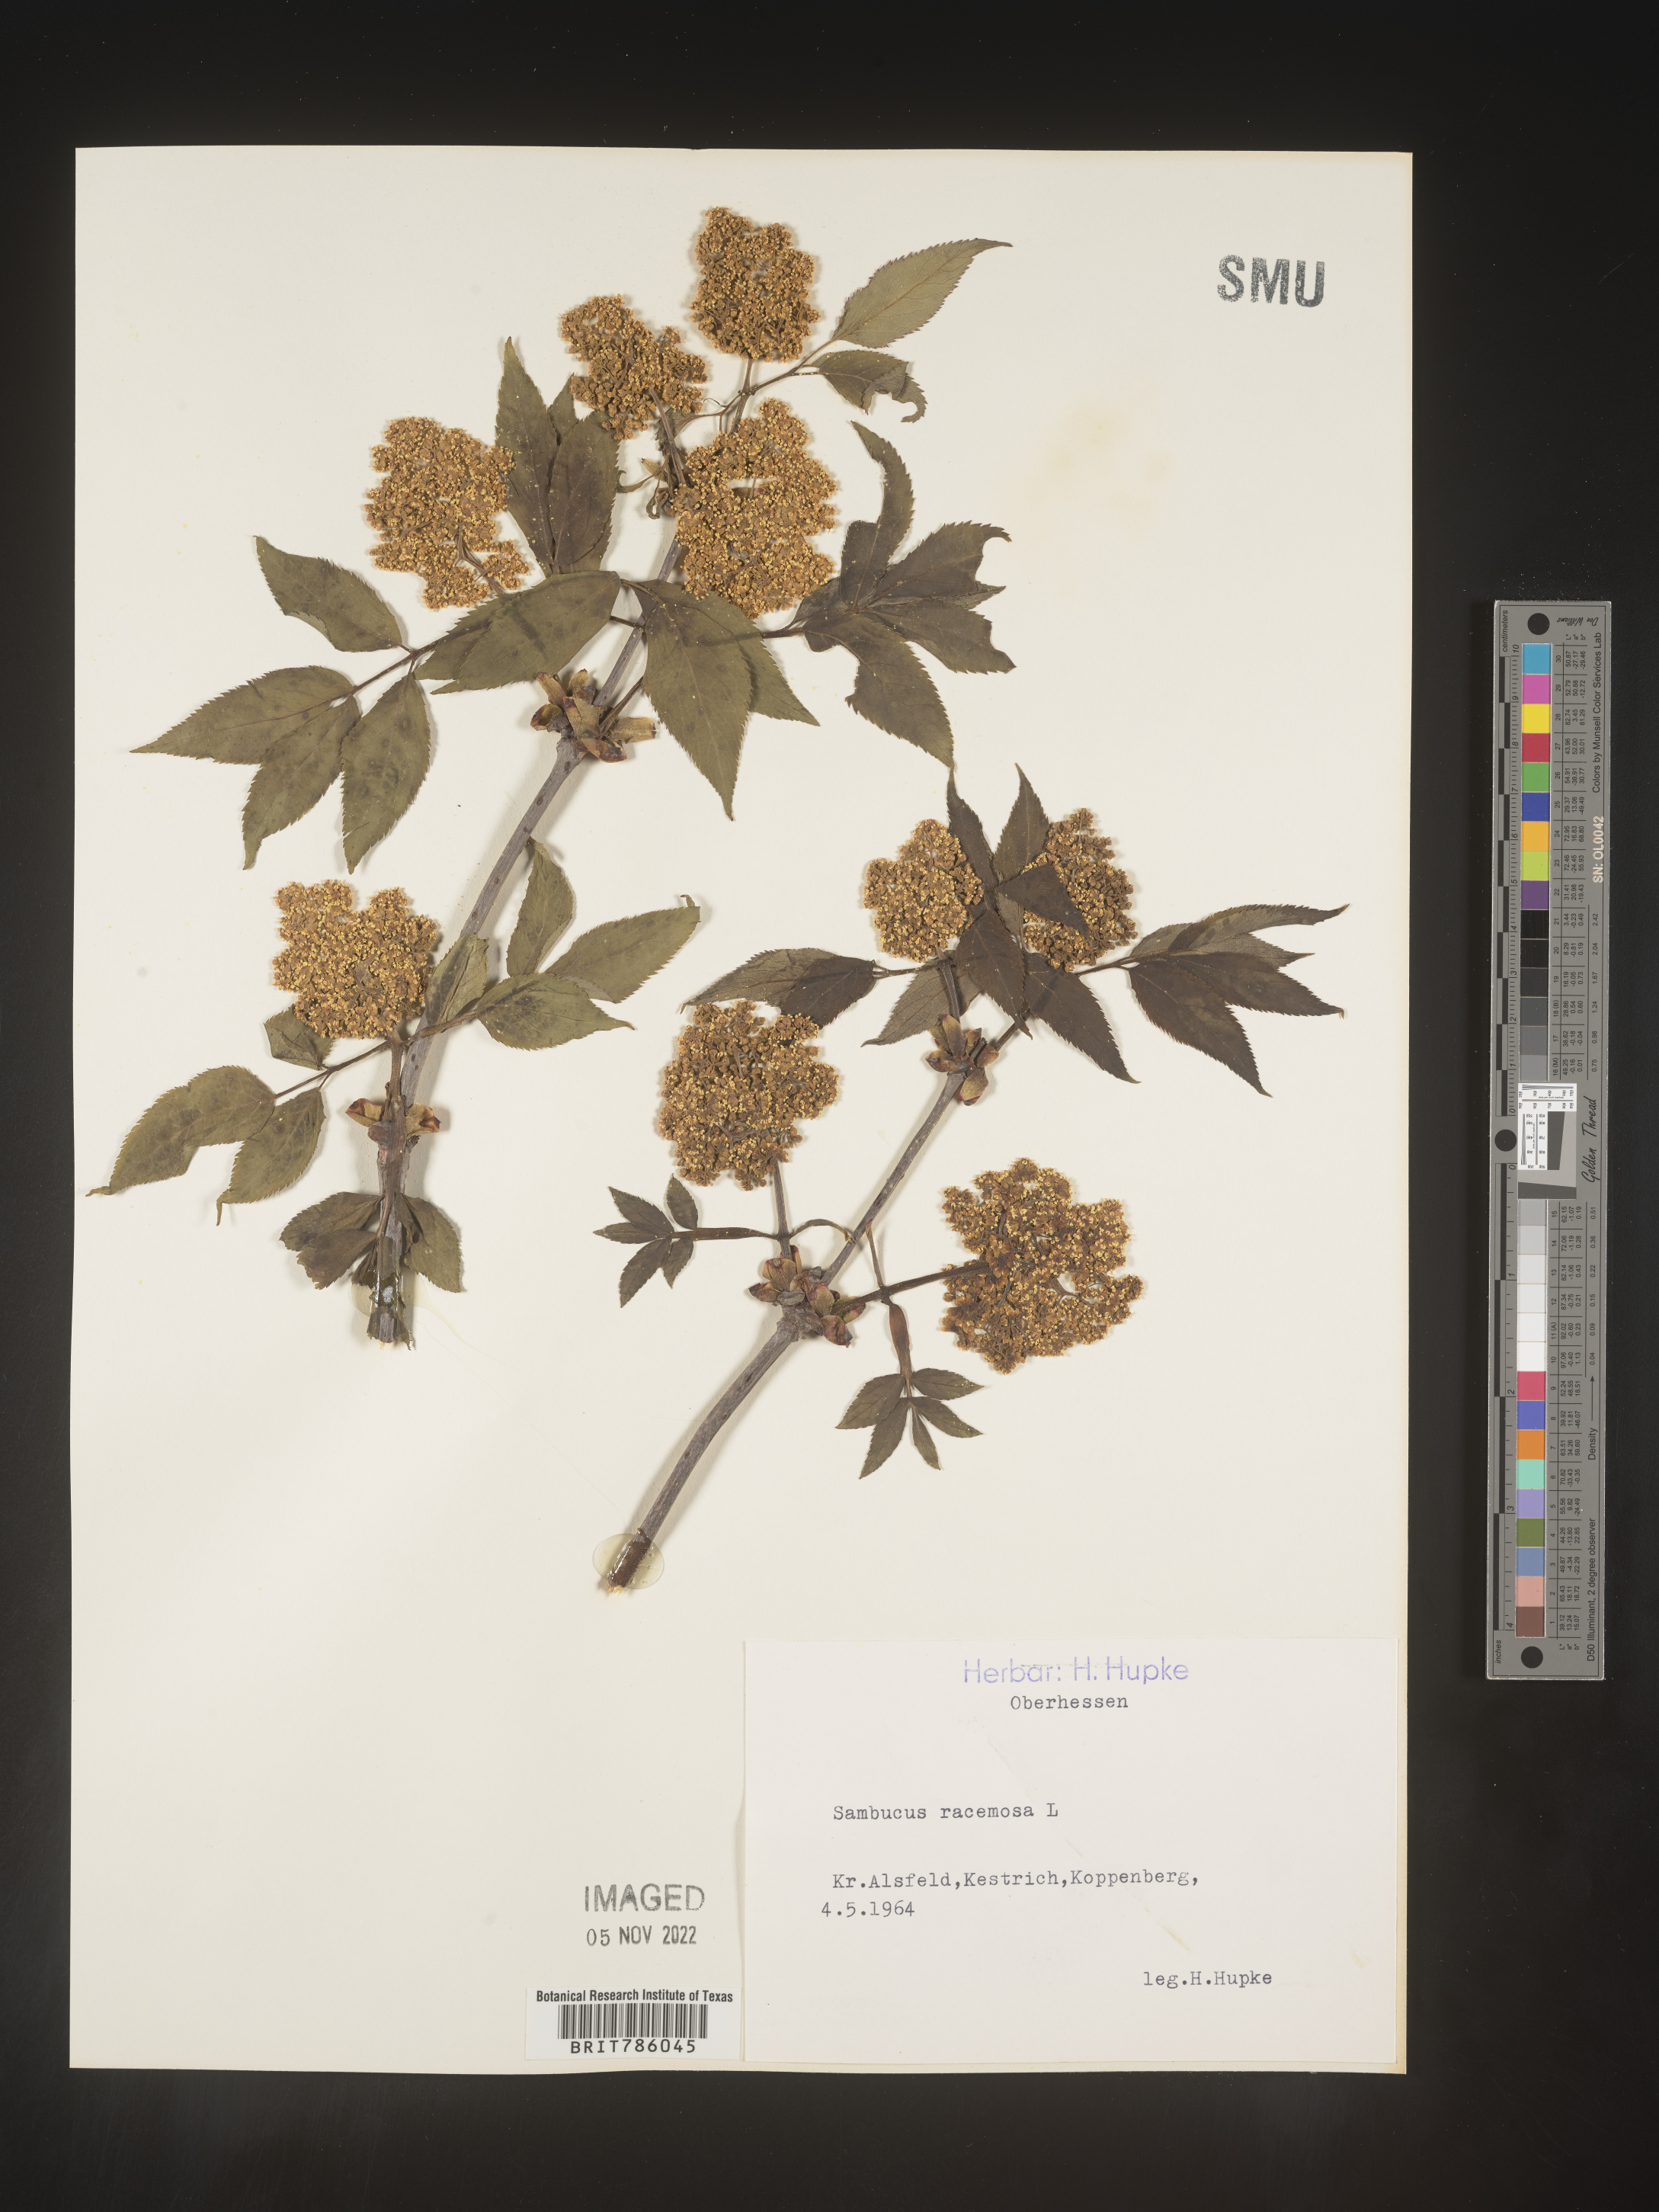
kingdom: Plantae
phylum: Tracheophyta
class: Magnoliopsida
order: Dipsacales
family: Viburnaceae
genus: Sambucus
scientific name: Sambucus
